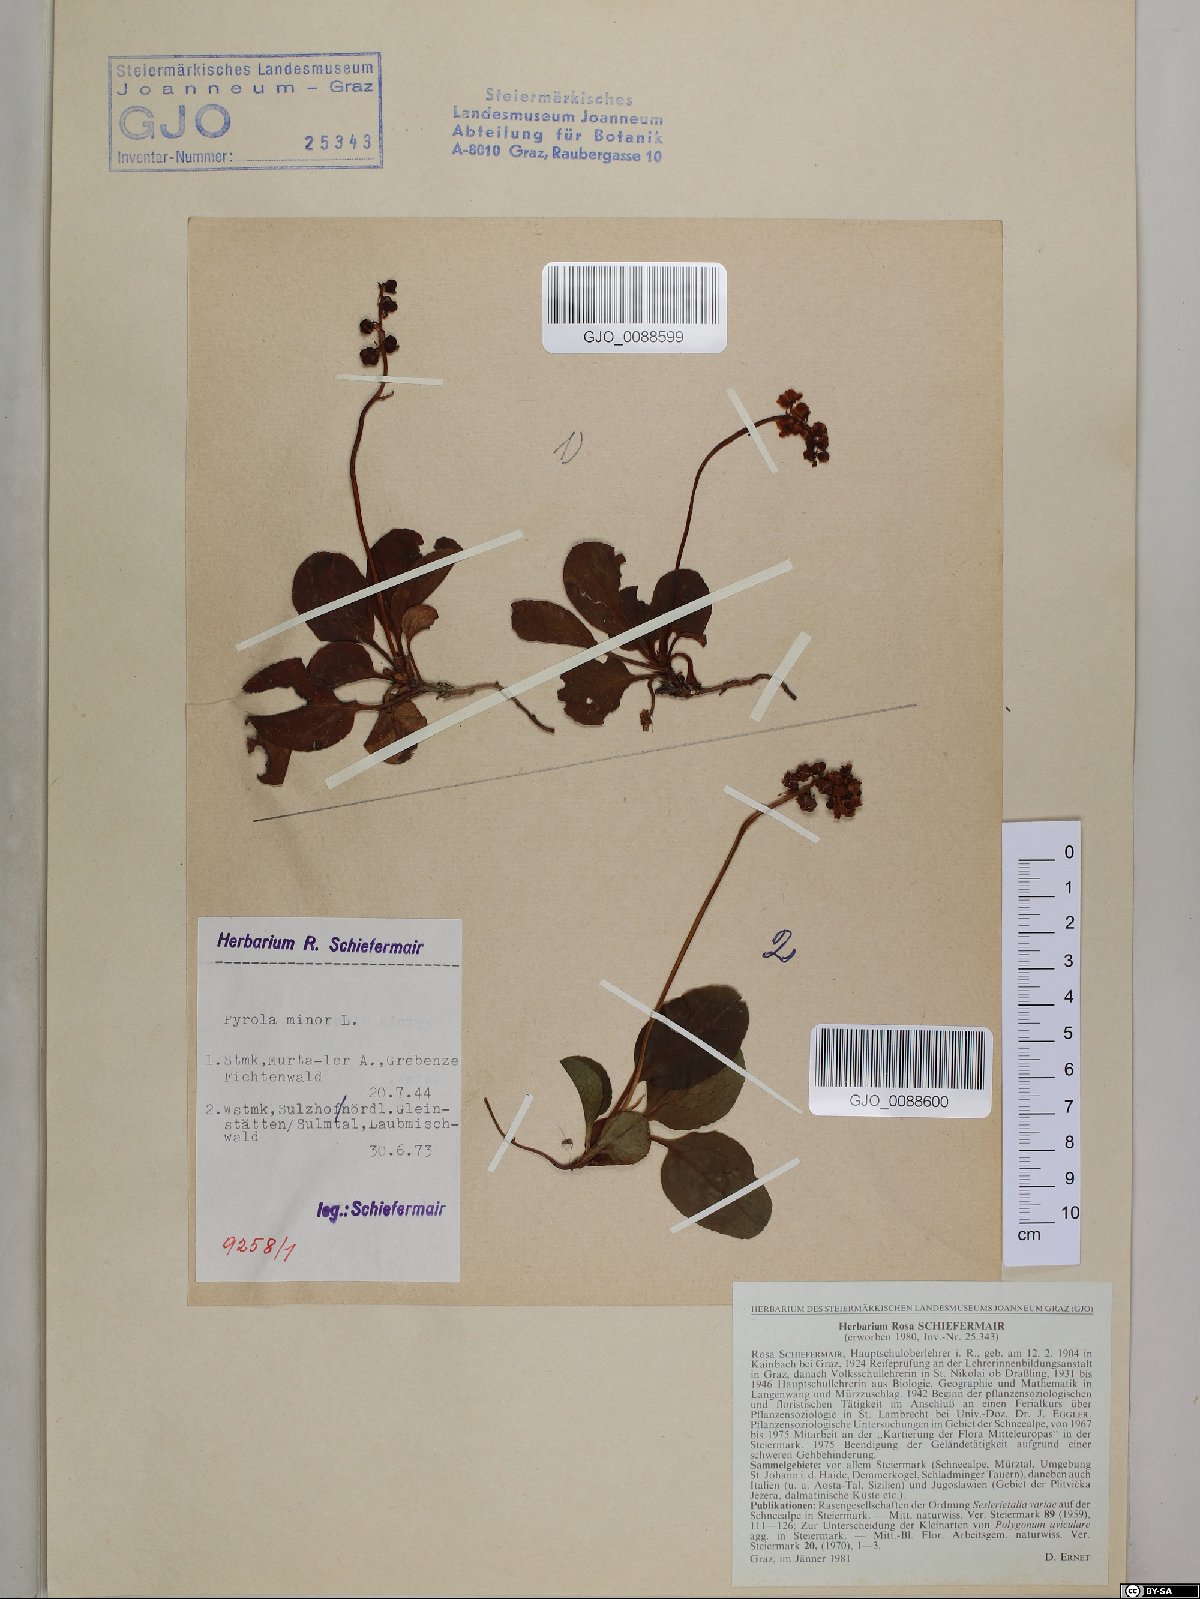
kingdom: Plantae
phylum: Tracheophyta
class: Magnoliopsida
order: Ericales
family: Ericaceae
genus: Pyrola
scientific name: Pyrola minor
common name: Common wintergreen
